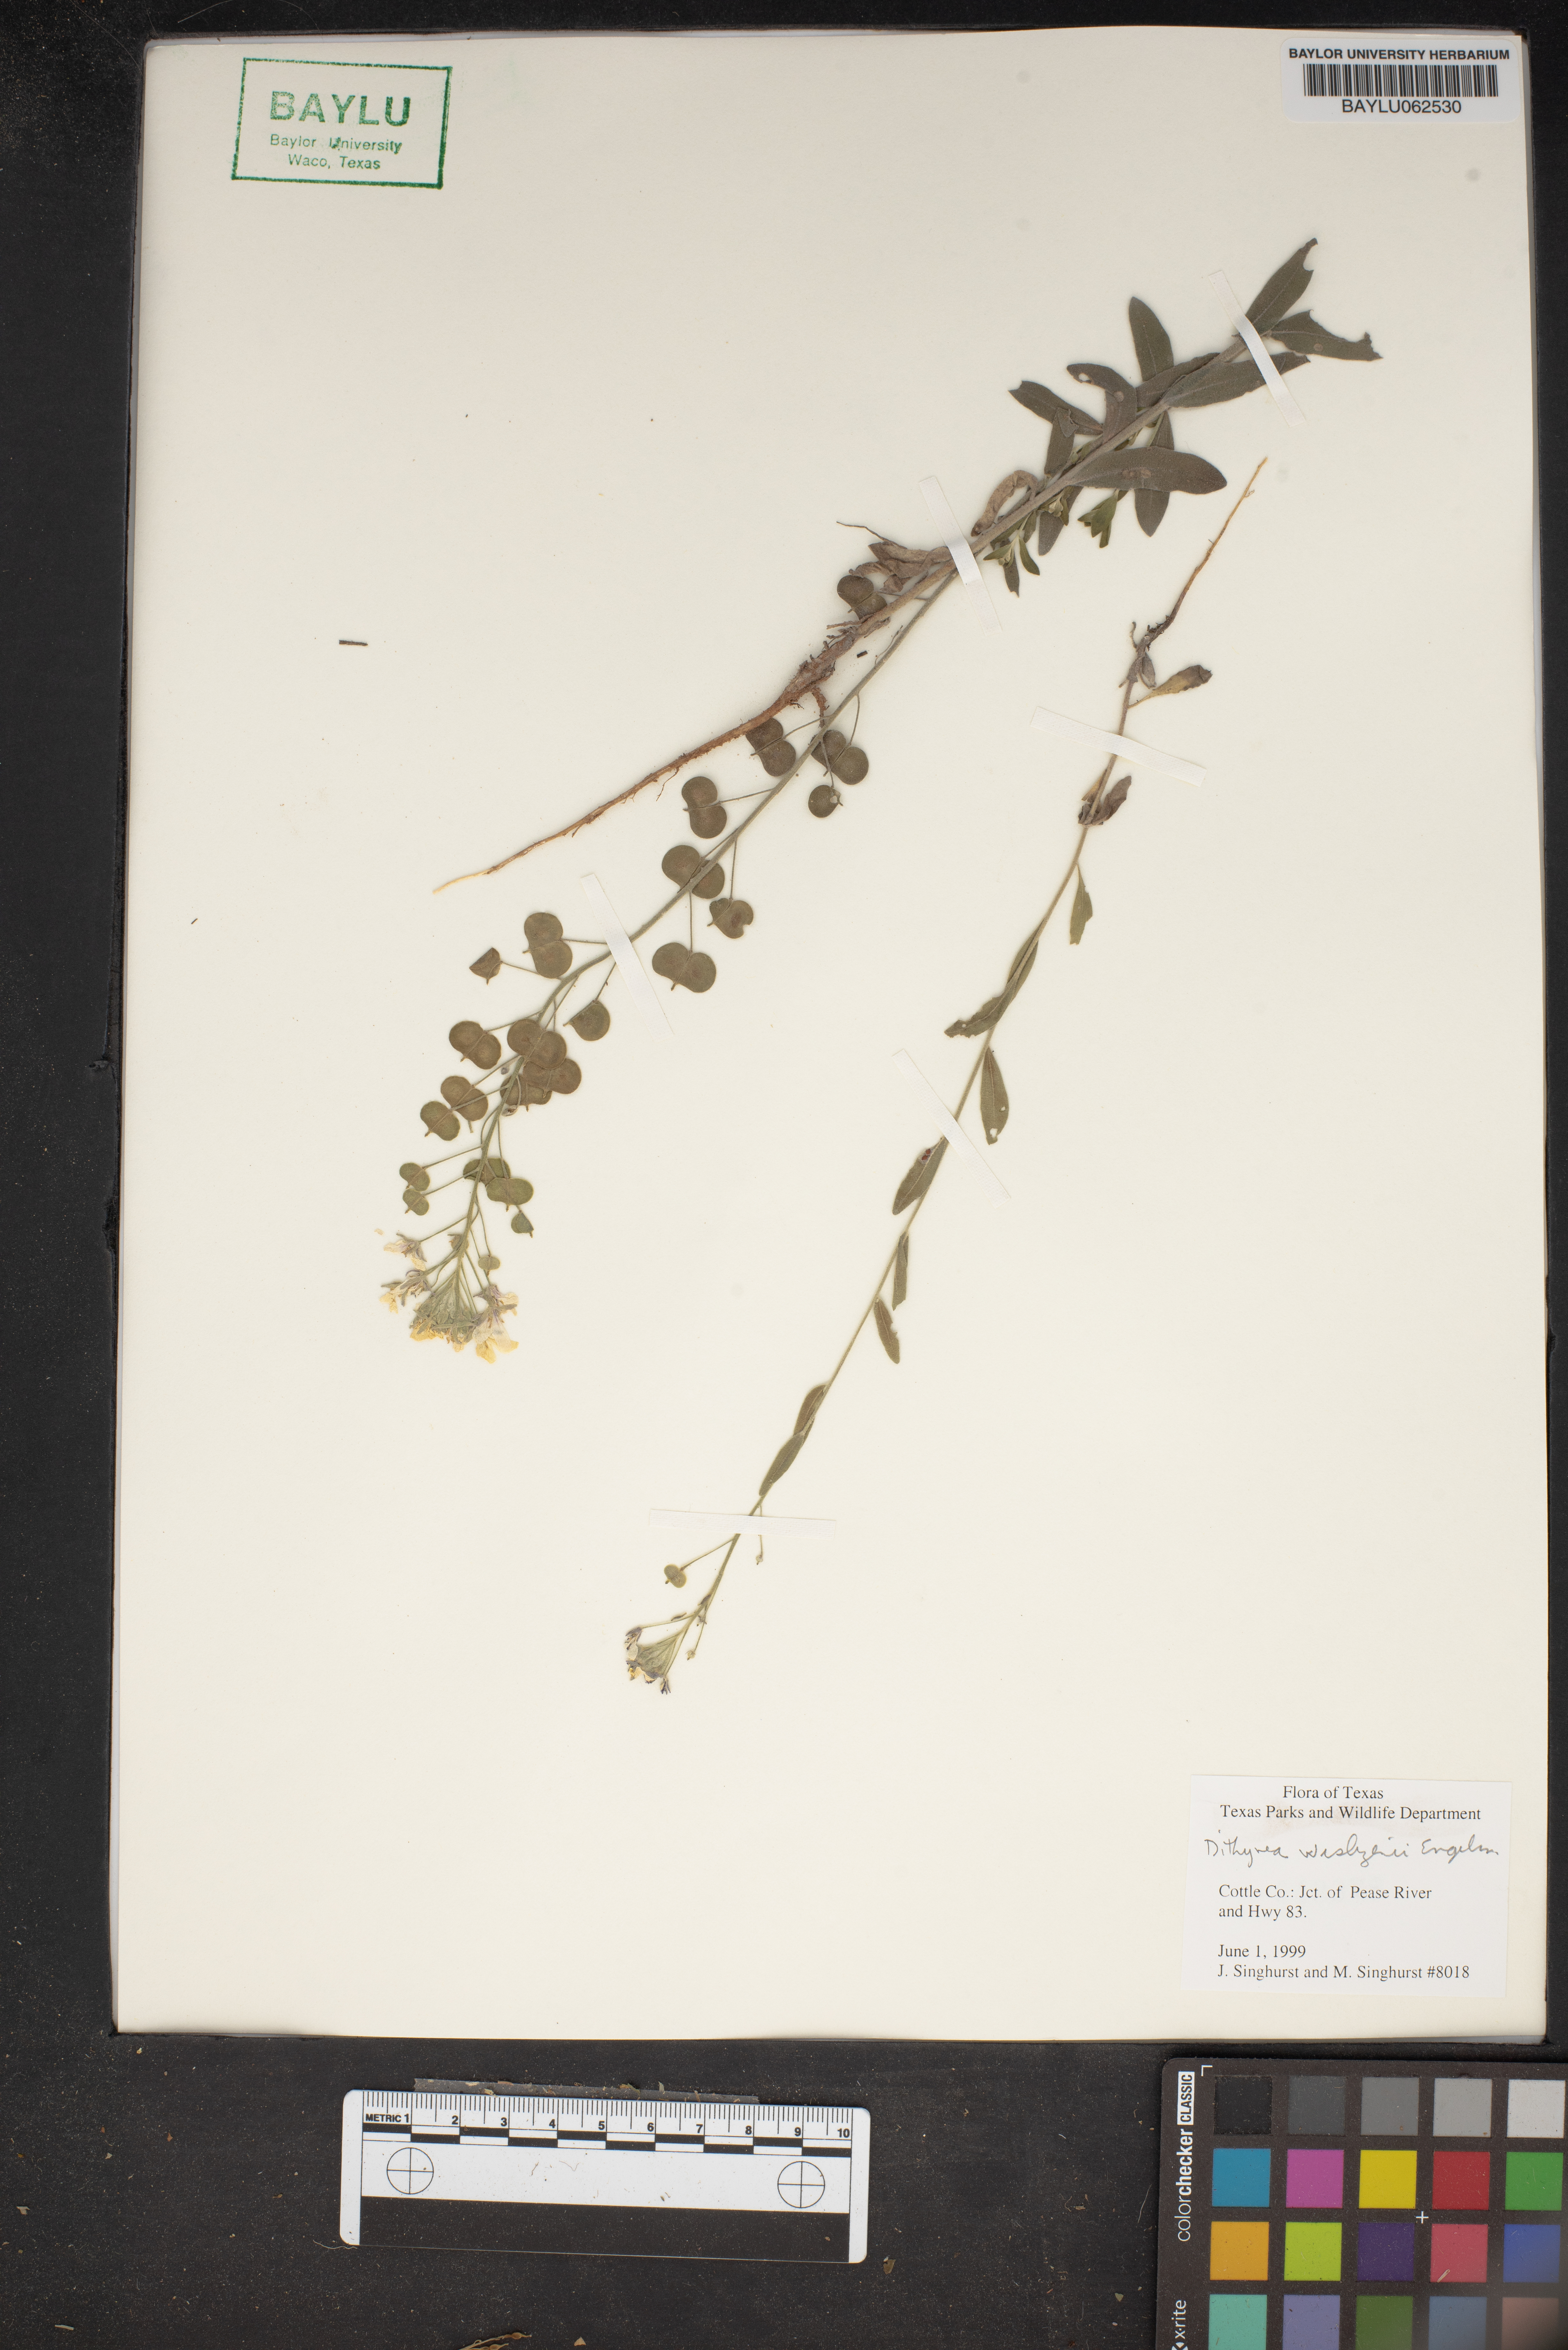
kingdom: Plantae
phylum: Tracheophyta
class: Magnoliopsida
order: Brassicales
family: Brassicaceae
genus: Dimorphocarpa
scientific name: Dimorphocarpa wislizenii
